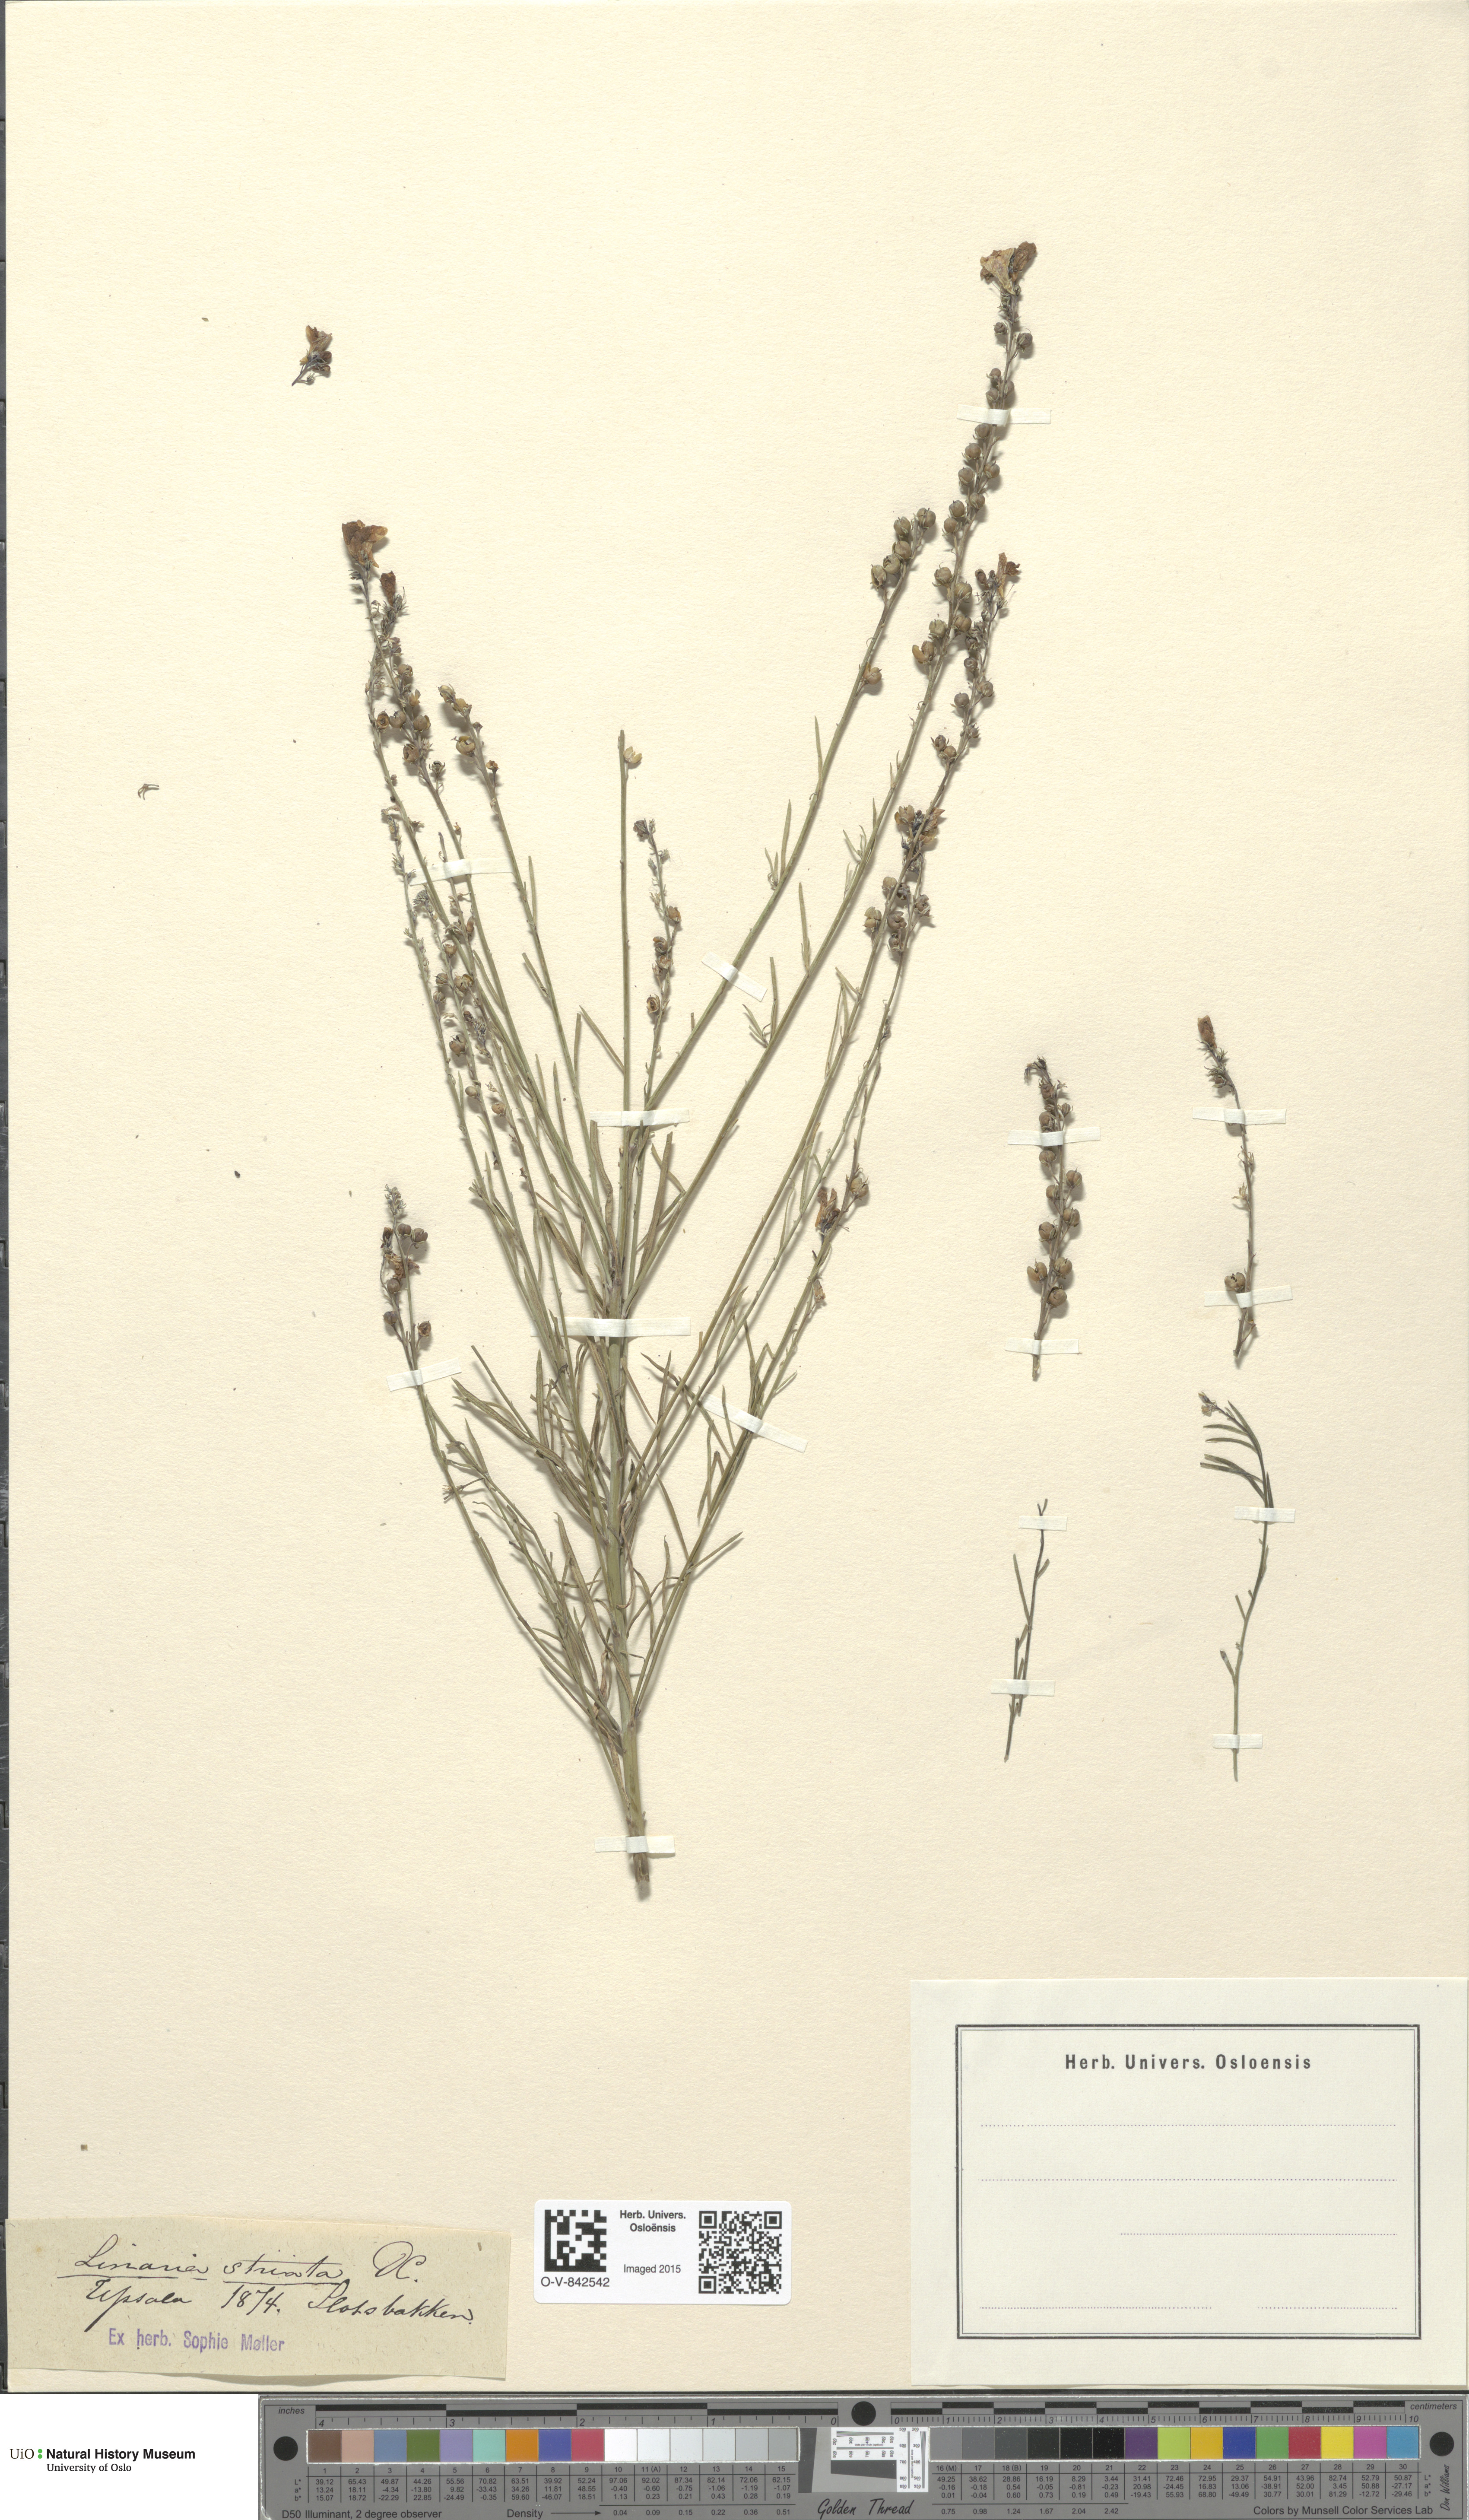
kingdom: Plantae
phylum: Tracheophyta
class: Magnoliopsida
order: Lamiales
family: Plantaginaceae
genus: Linaria
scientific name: Linaria repens
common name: Pale toadflax
